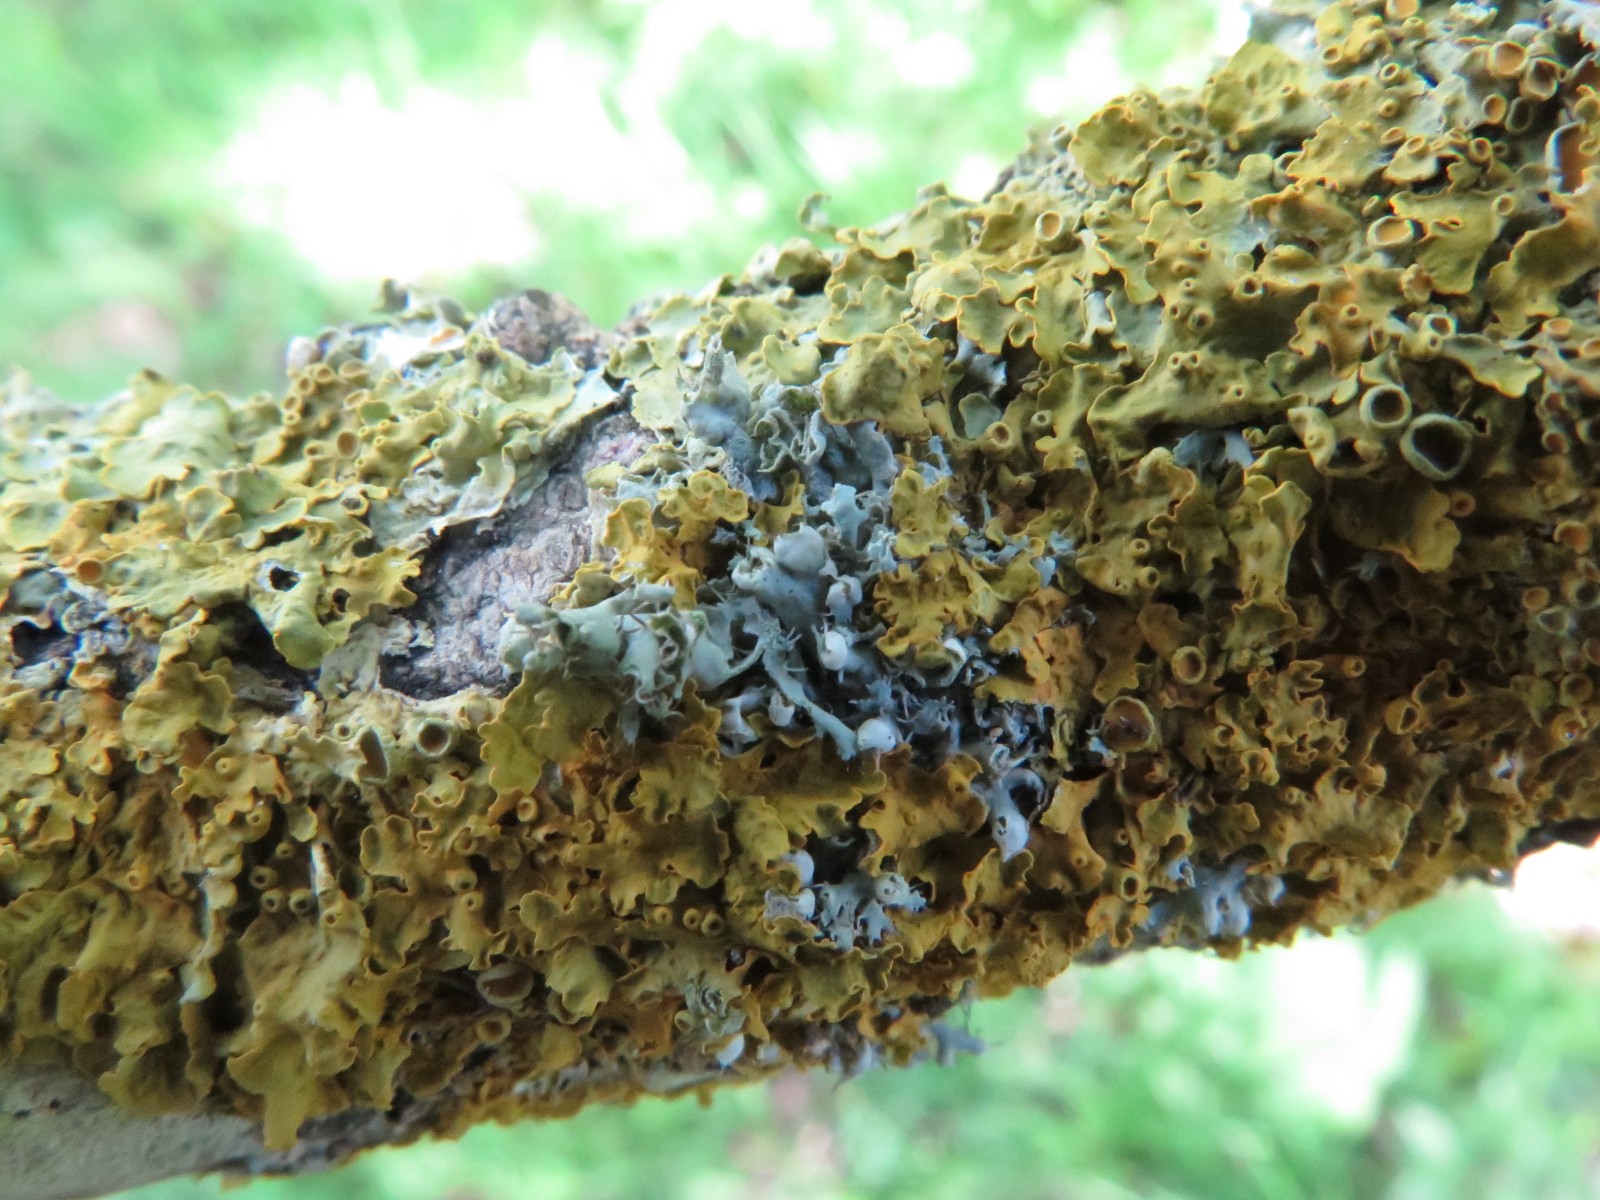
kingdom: Fungi
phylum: Ascomycota
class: Lecanoromycetes
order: Caliciales
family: Physciaceae
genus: Physcia
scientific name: Physcia adscendens
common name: hætte-rosetlav
